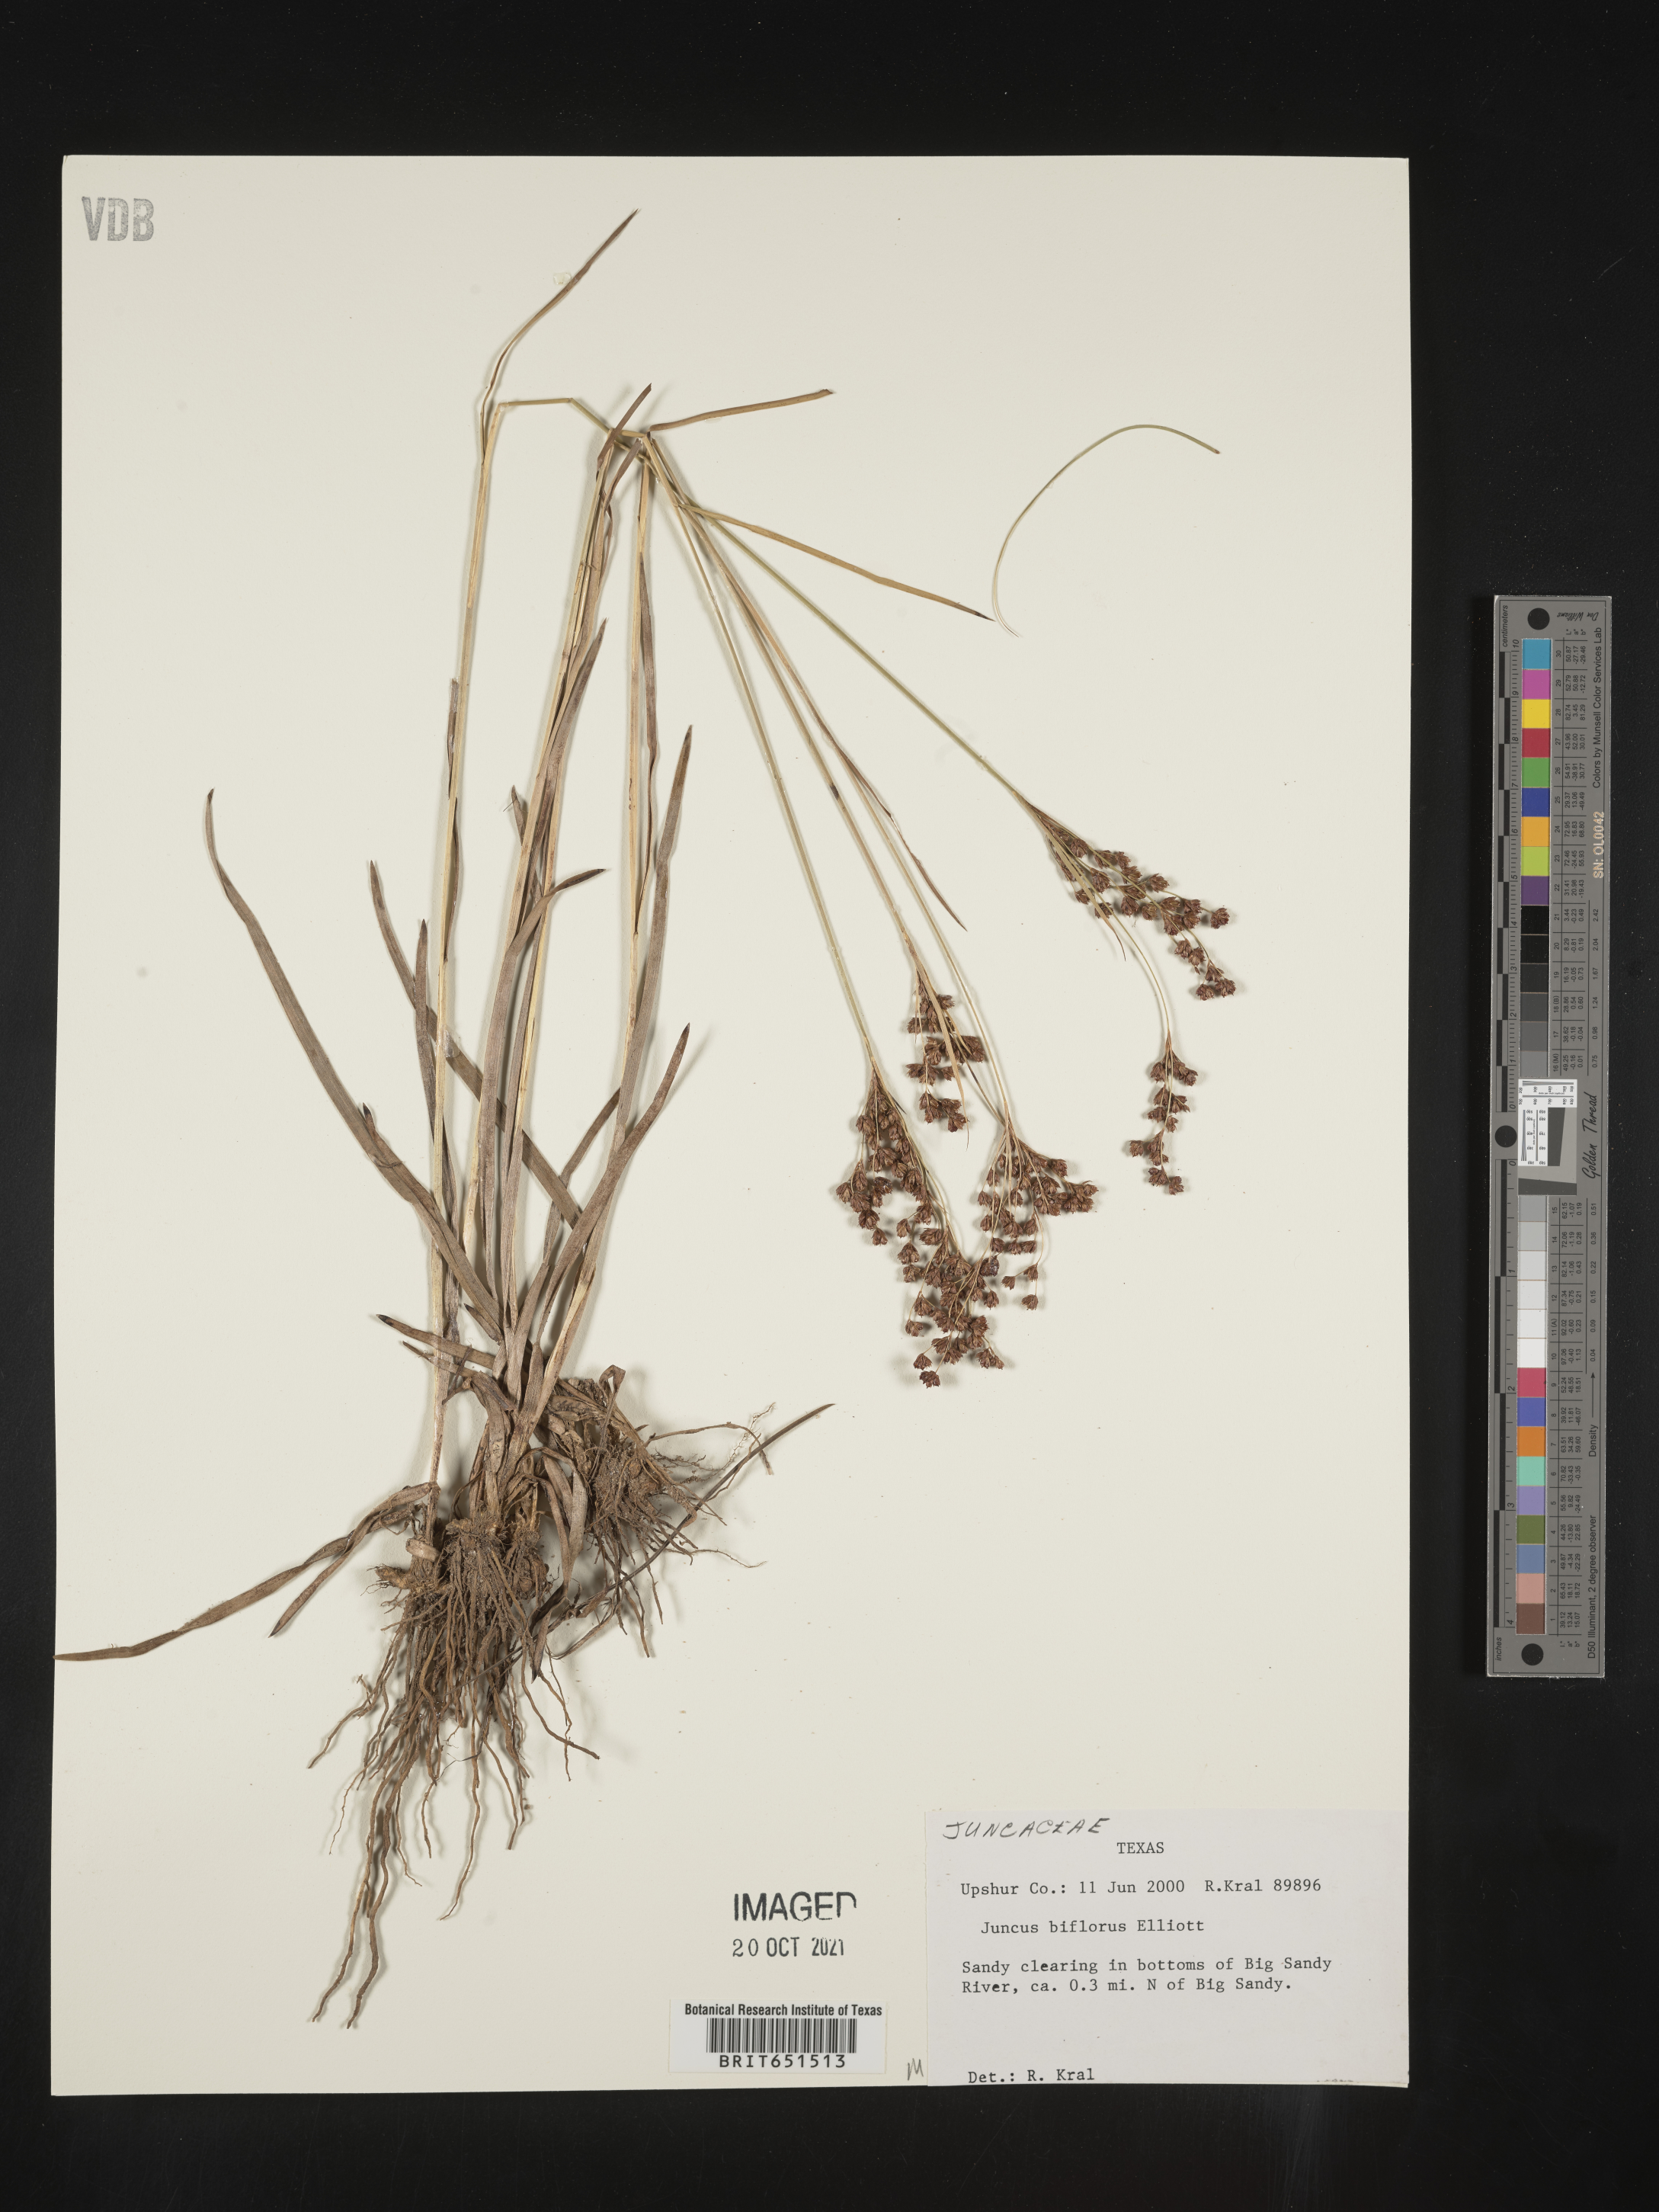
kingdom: Plantae
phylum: Tracheophyta
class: Liliopsida
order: Poales
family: Juncaceae
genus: Juncus
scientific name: Juncus biflorus
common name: Two-flowered rush
